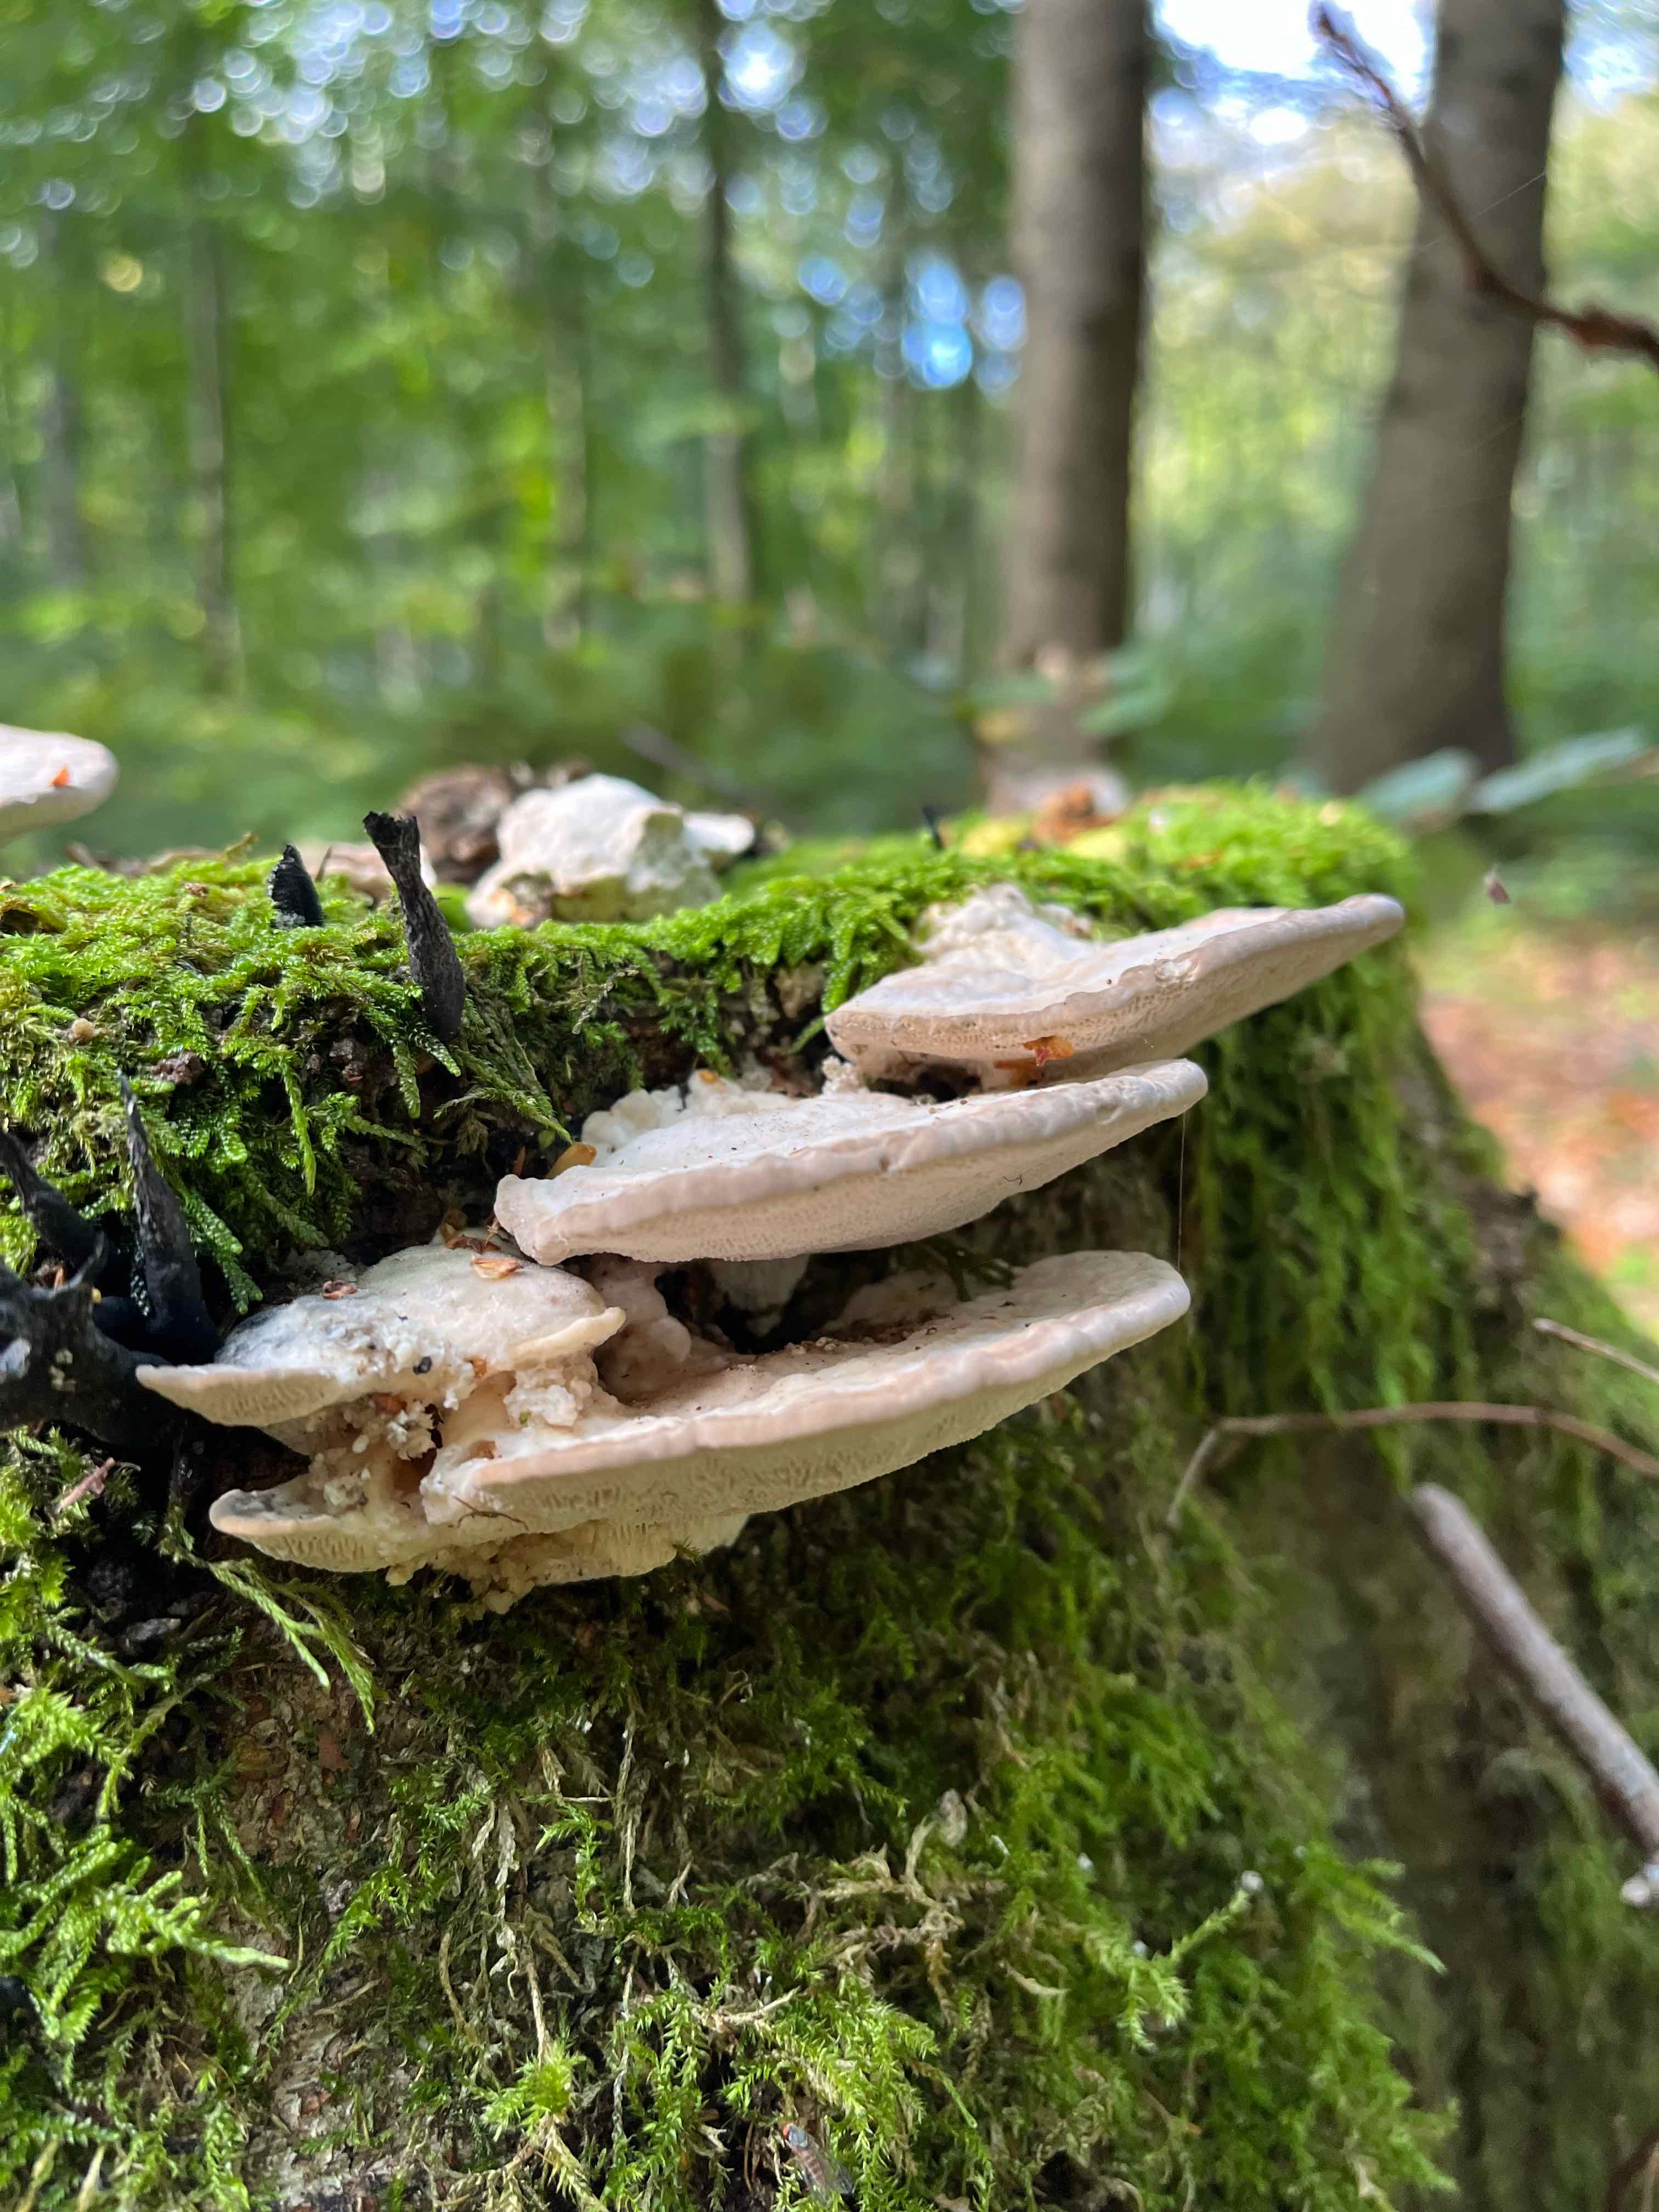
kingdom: Fungi
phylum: Basidiomycota
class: Agaricomycetes
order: Polyporales
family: Polyporaceae
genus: Trametes
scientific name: Trametes gibbosa
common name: puklet læderporesvamp
